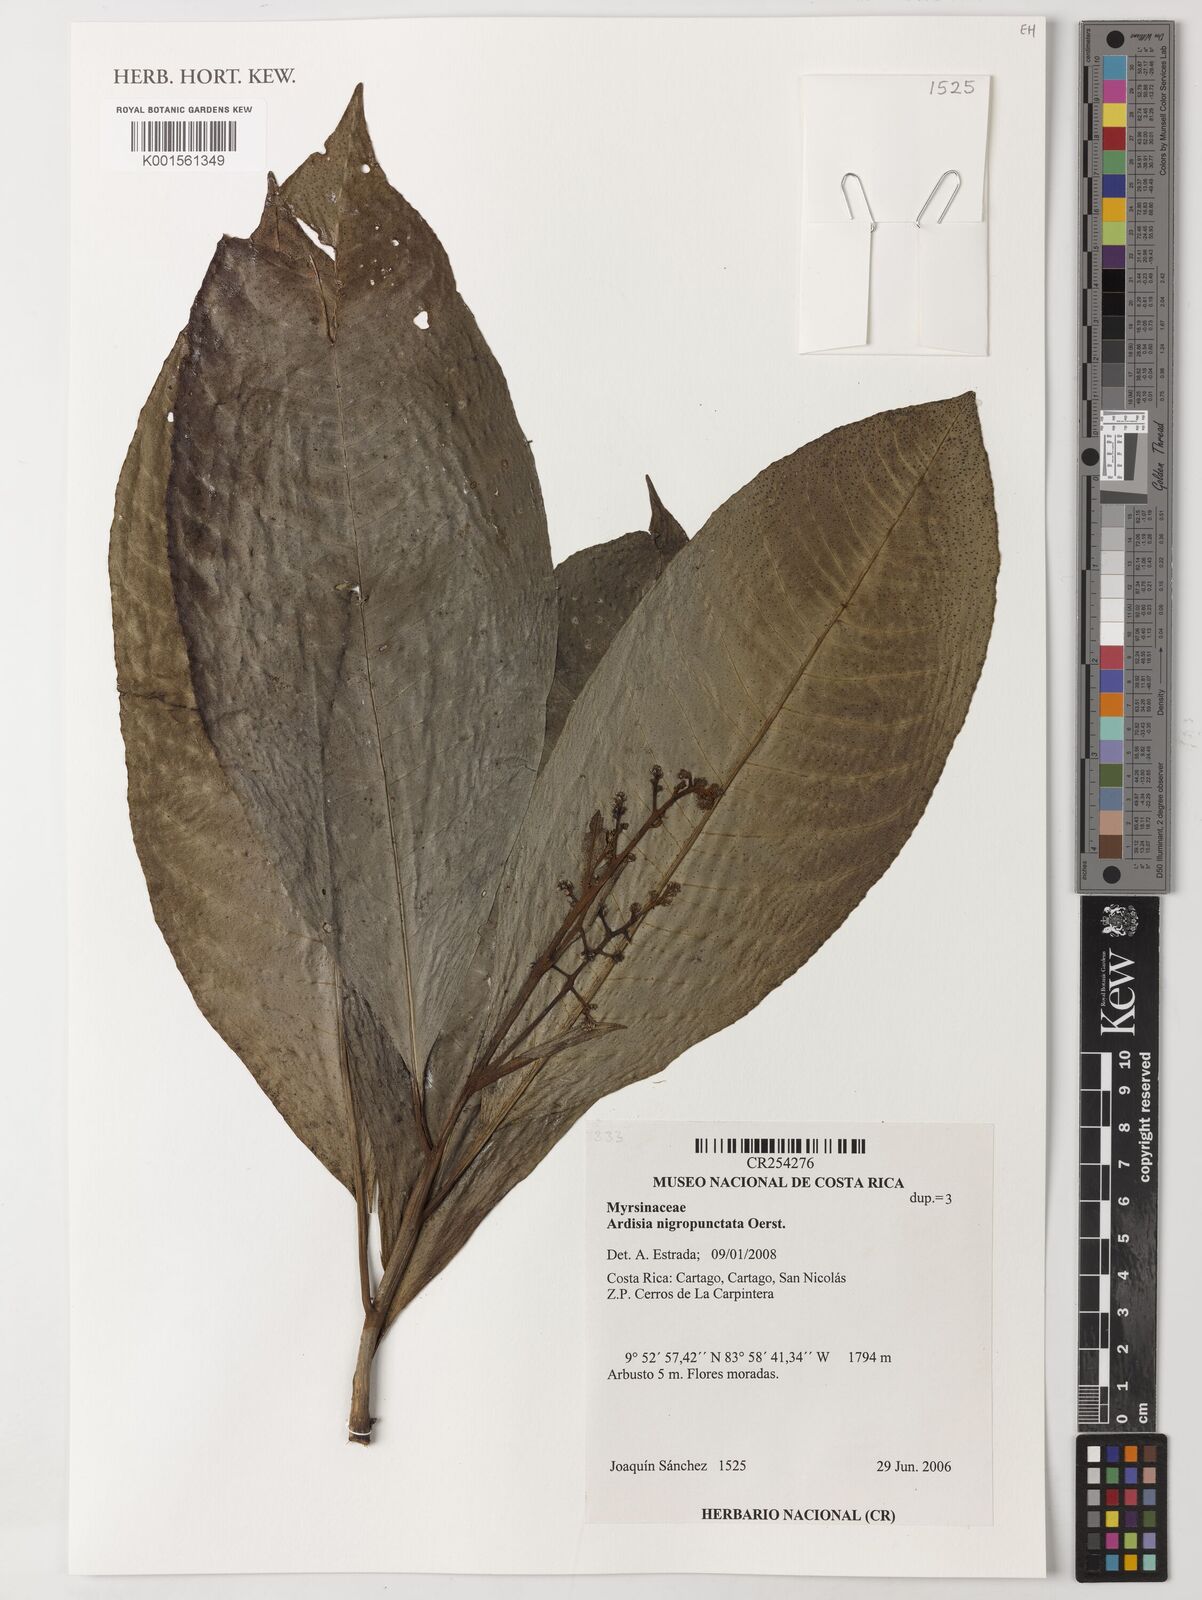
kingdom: Plantae
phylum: Tracheophyta
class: Magnoliopsida
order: Ericales
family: Primulaceae
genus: Ardisia
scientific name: Ardisia nigropunctata
